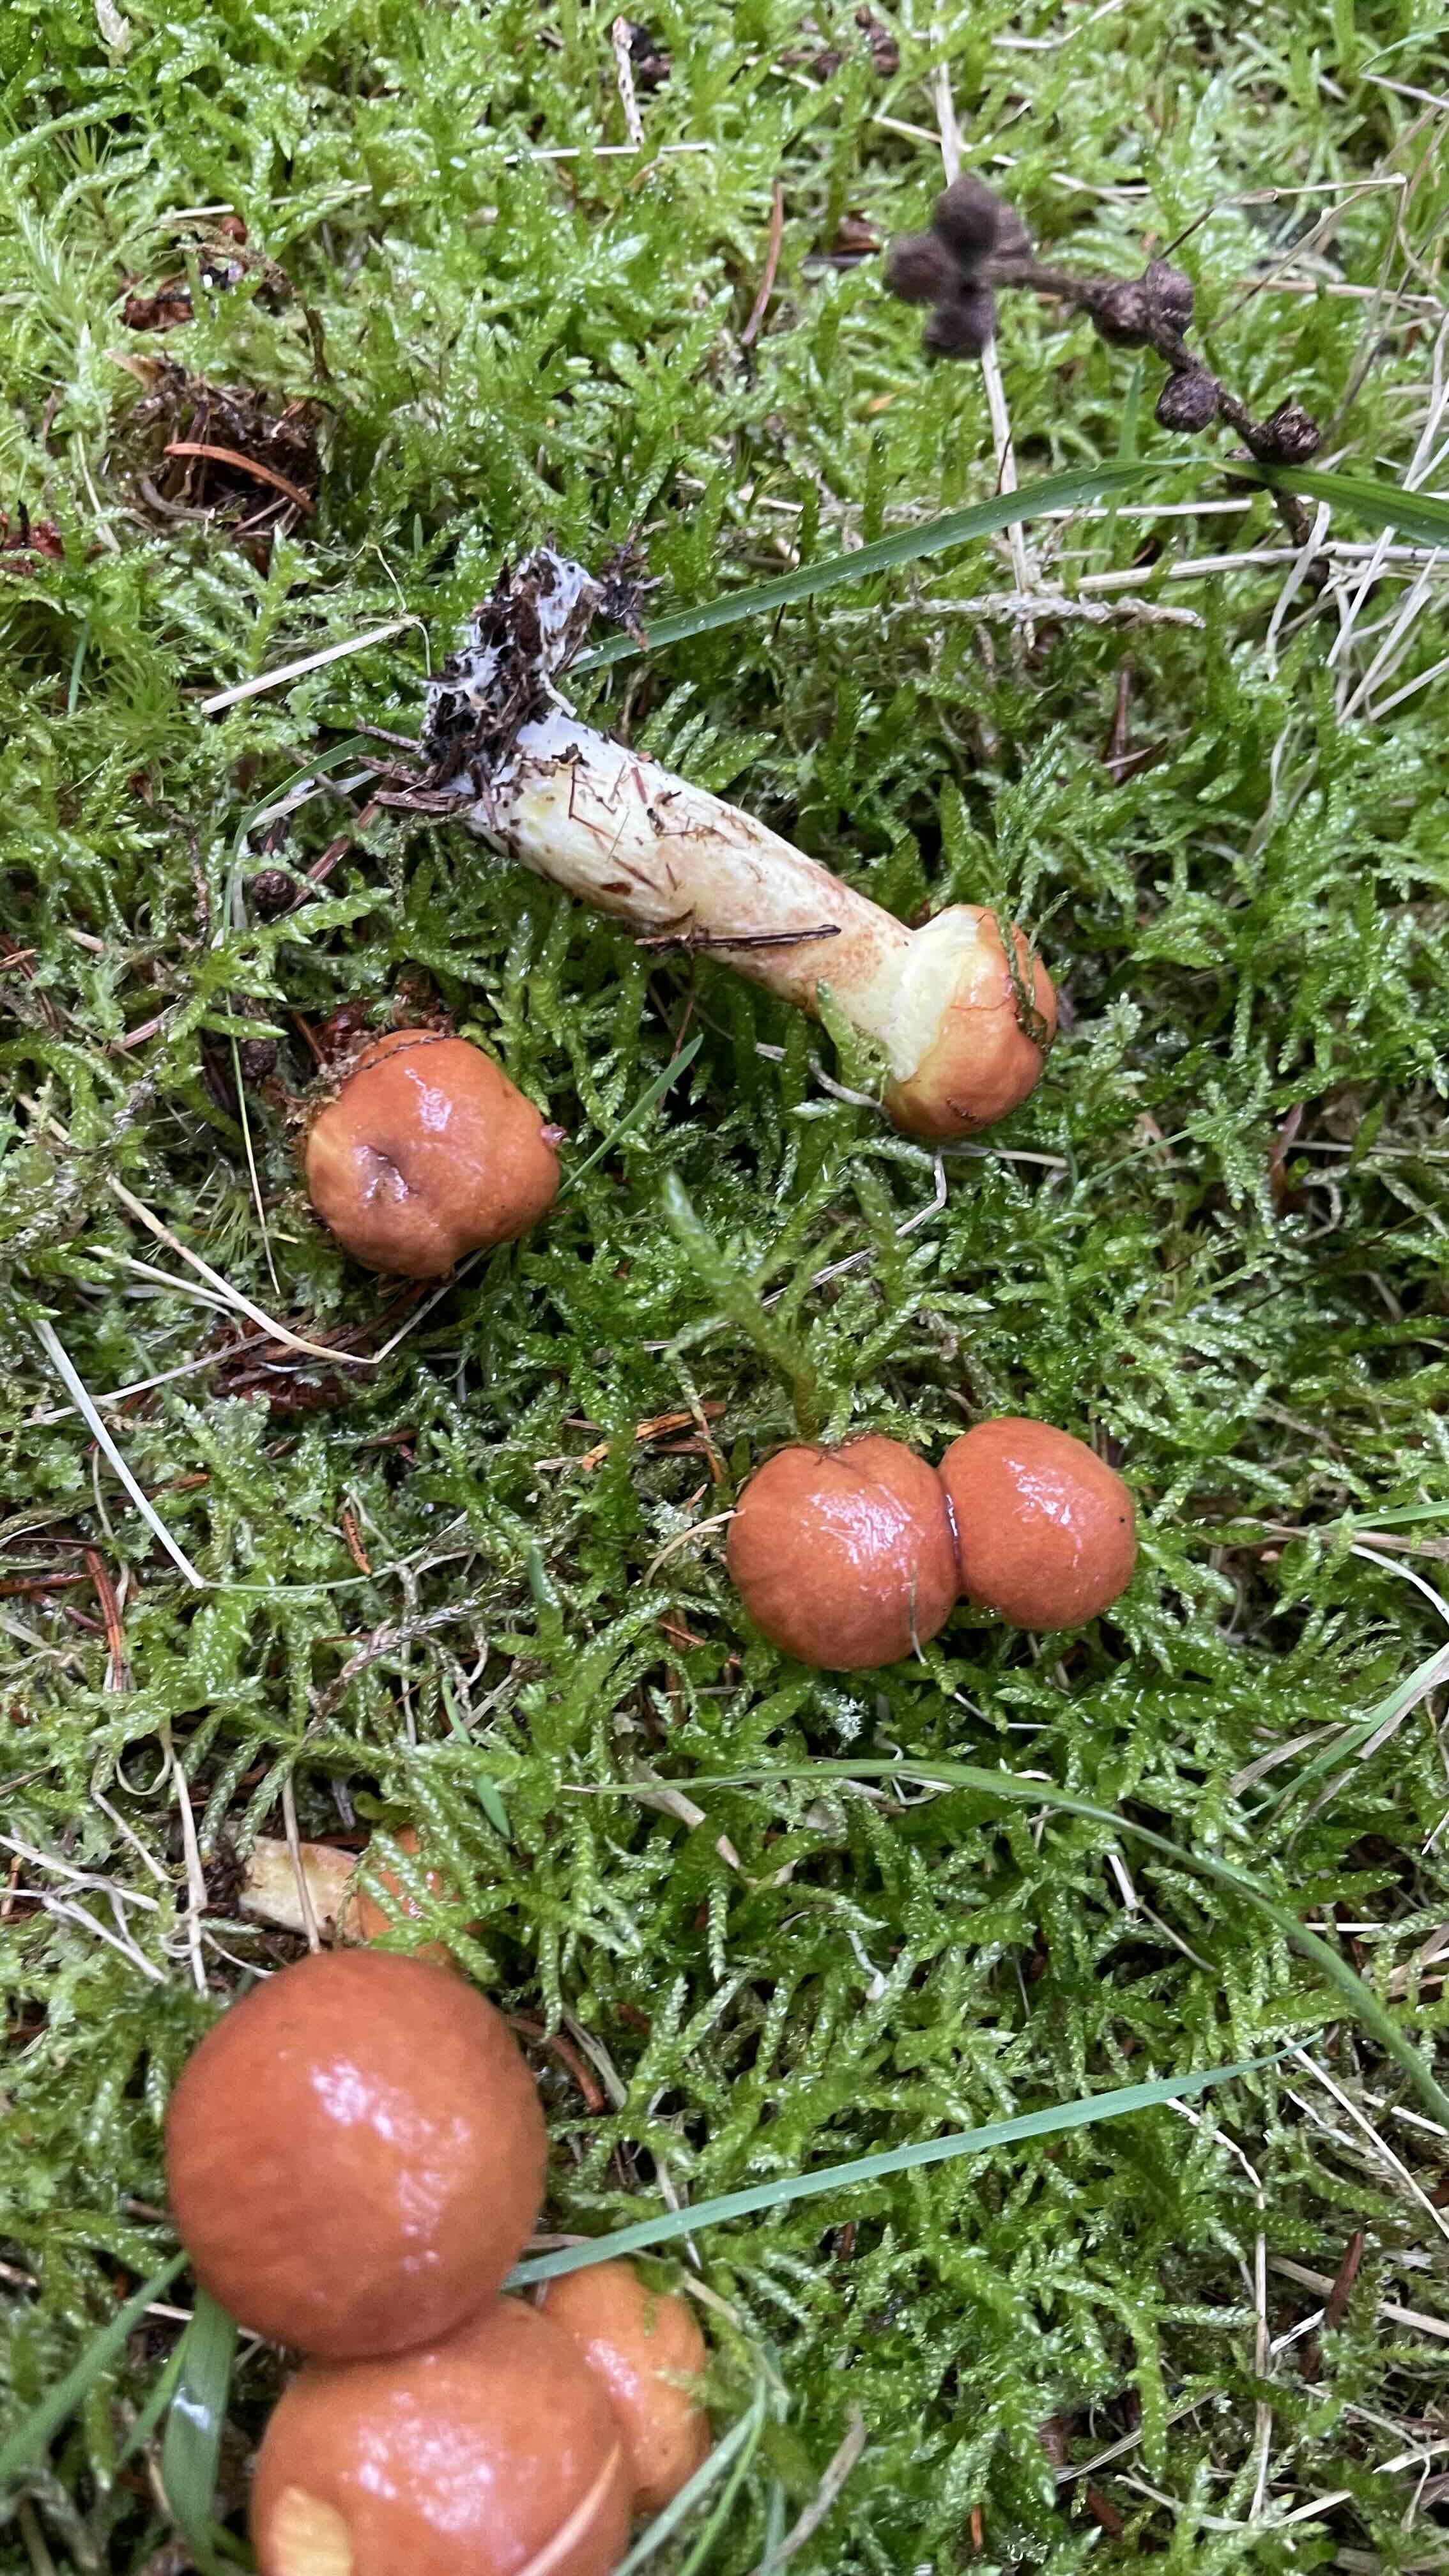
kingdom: Fungi
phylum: Basidiomycota
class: Agaricomycetes
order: Boletales
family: Suillaceae
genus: Suillus
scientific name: Suillus grevillei
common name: lærke-slimrørhat
